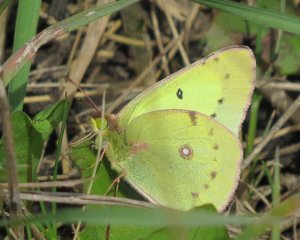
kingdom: Animalia
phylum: Arthropoda
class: Insecta
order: Lepidoptera
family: Pieridae
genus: Colias
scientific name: Colias philodice
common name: Clouded Sulphur
